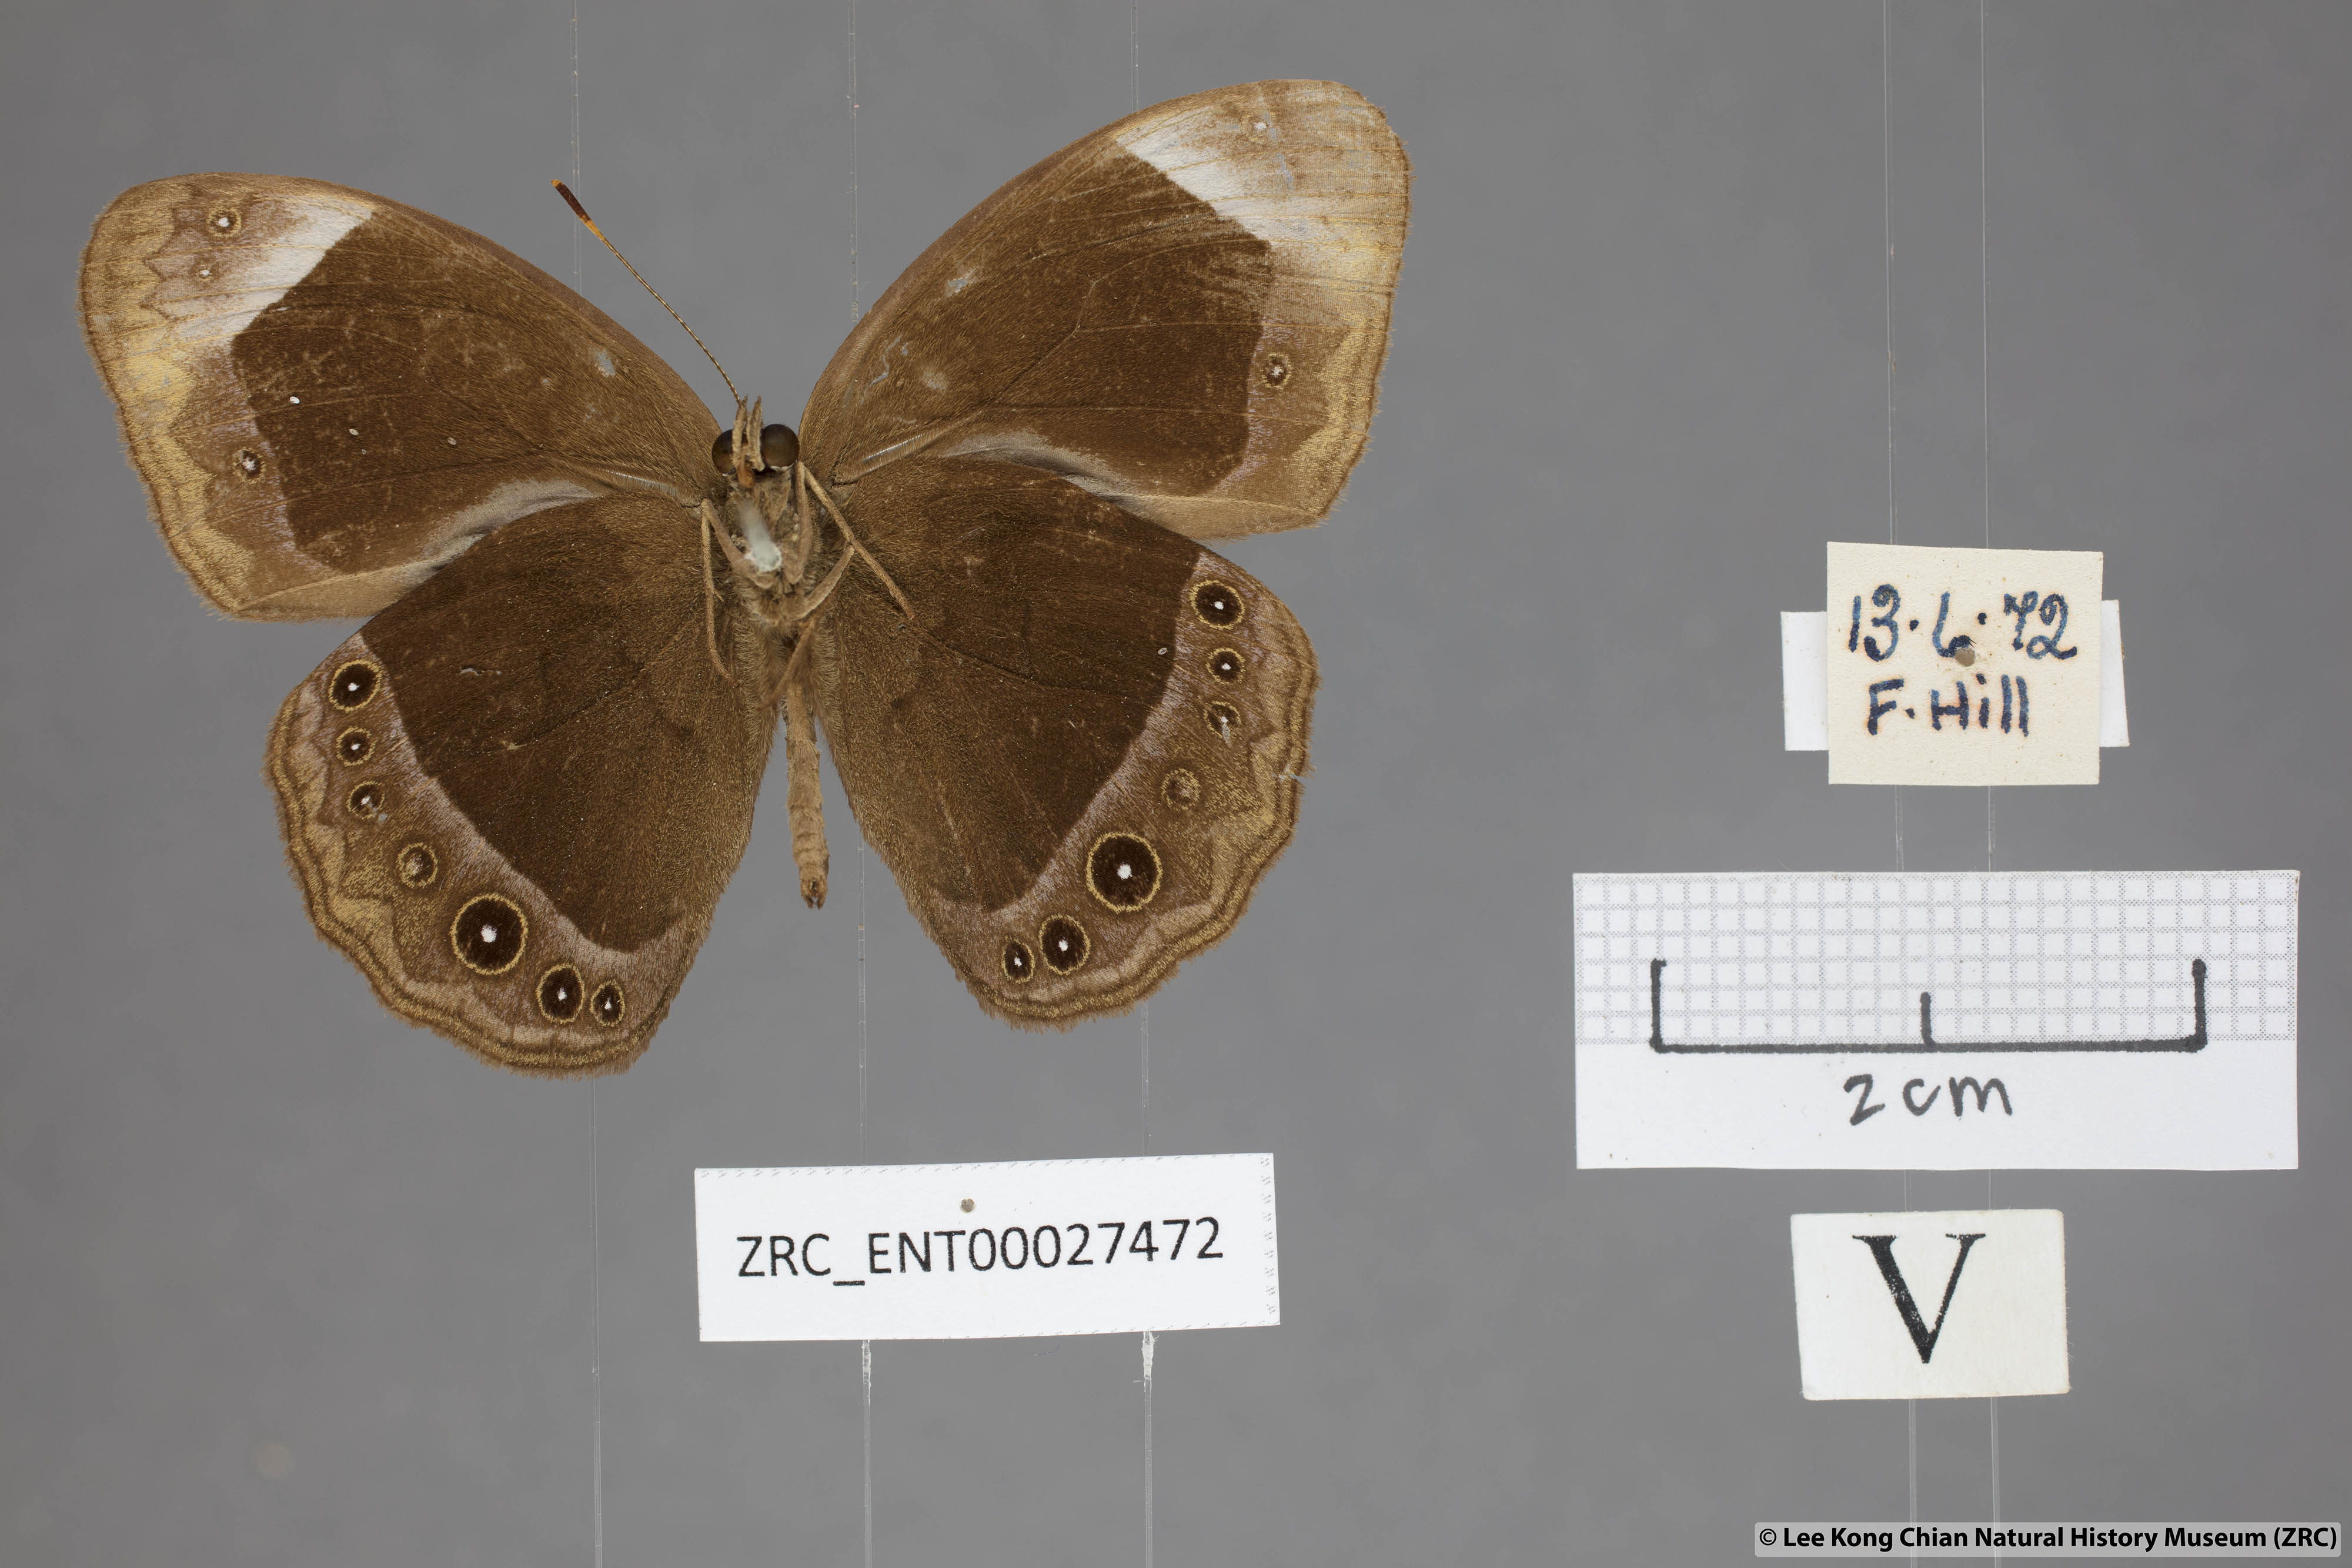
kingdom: Animalia
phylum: Arthropoda
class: Insecta
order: Lepidoptera
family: Nymphalidae
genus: Mycalesis
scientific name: Mycalesis anaxias
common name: White-bar bushbrown
